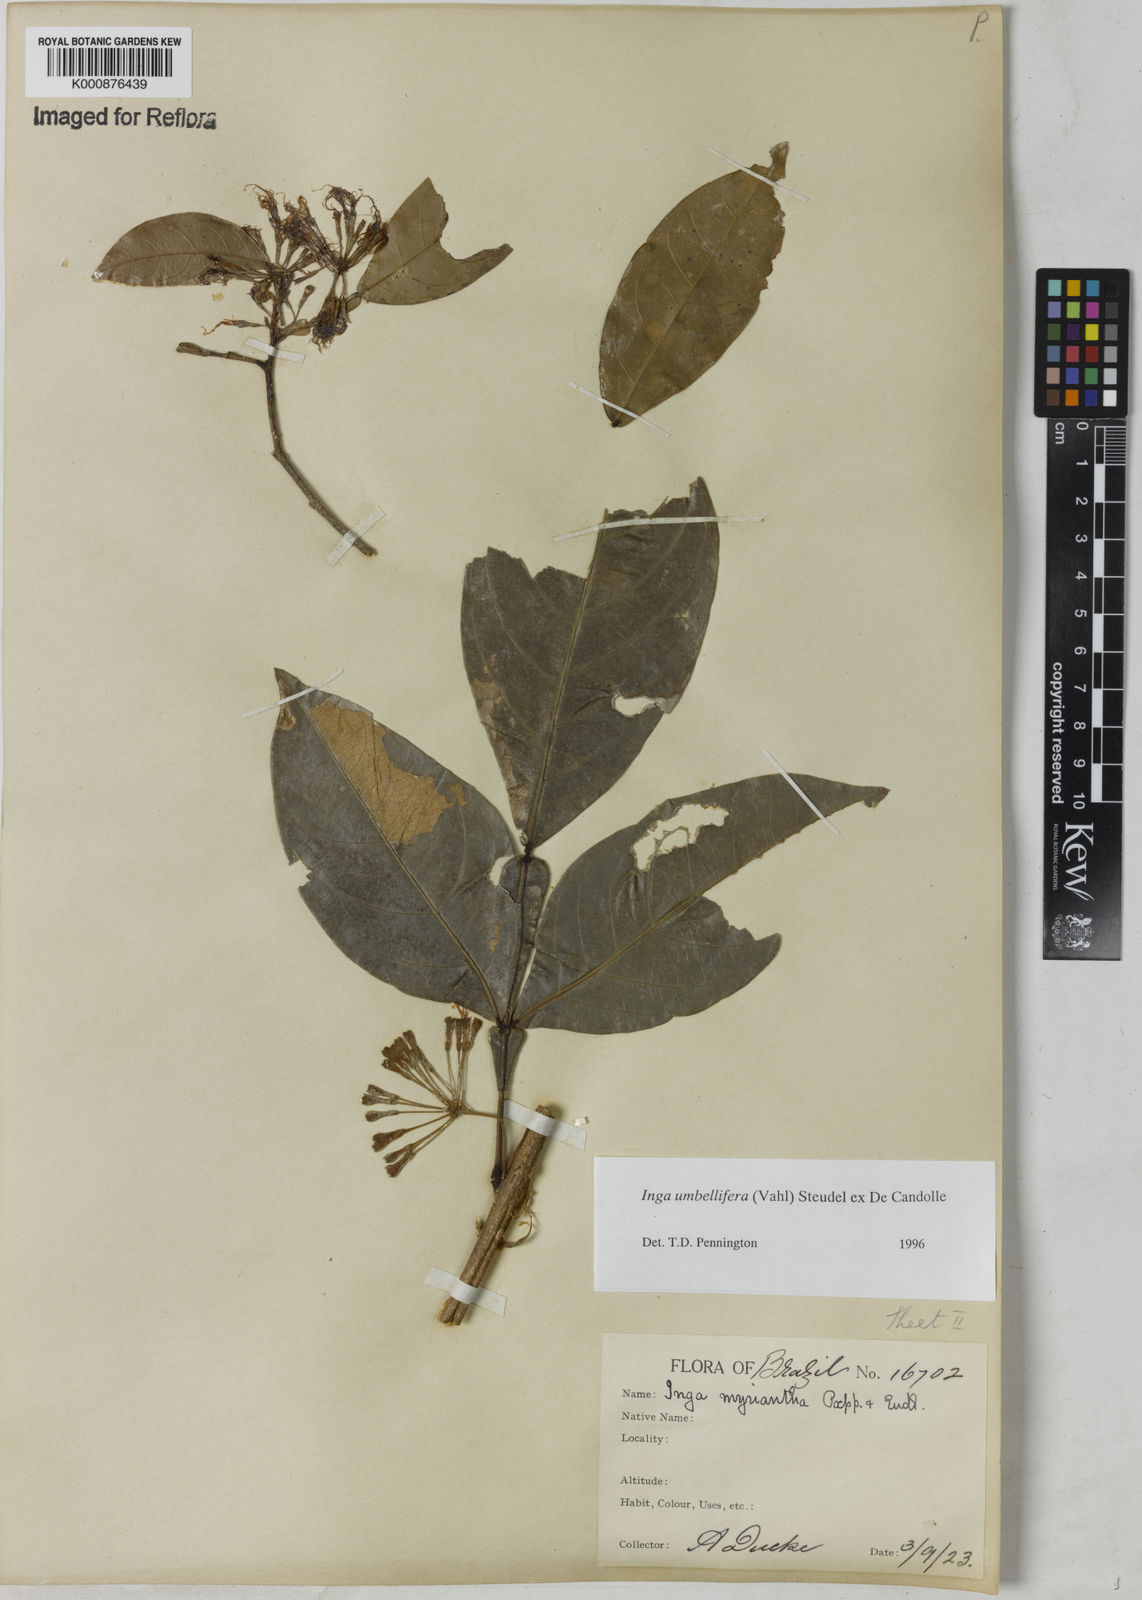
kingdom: Plantae
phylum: Tracheophyta
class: Magnoliopsida
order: Fabales
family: Fabaceae
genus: Inga
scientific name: Inga umbellifera
